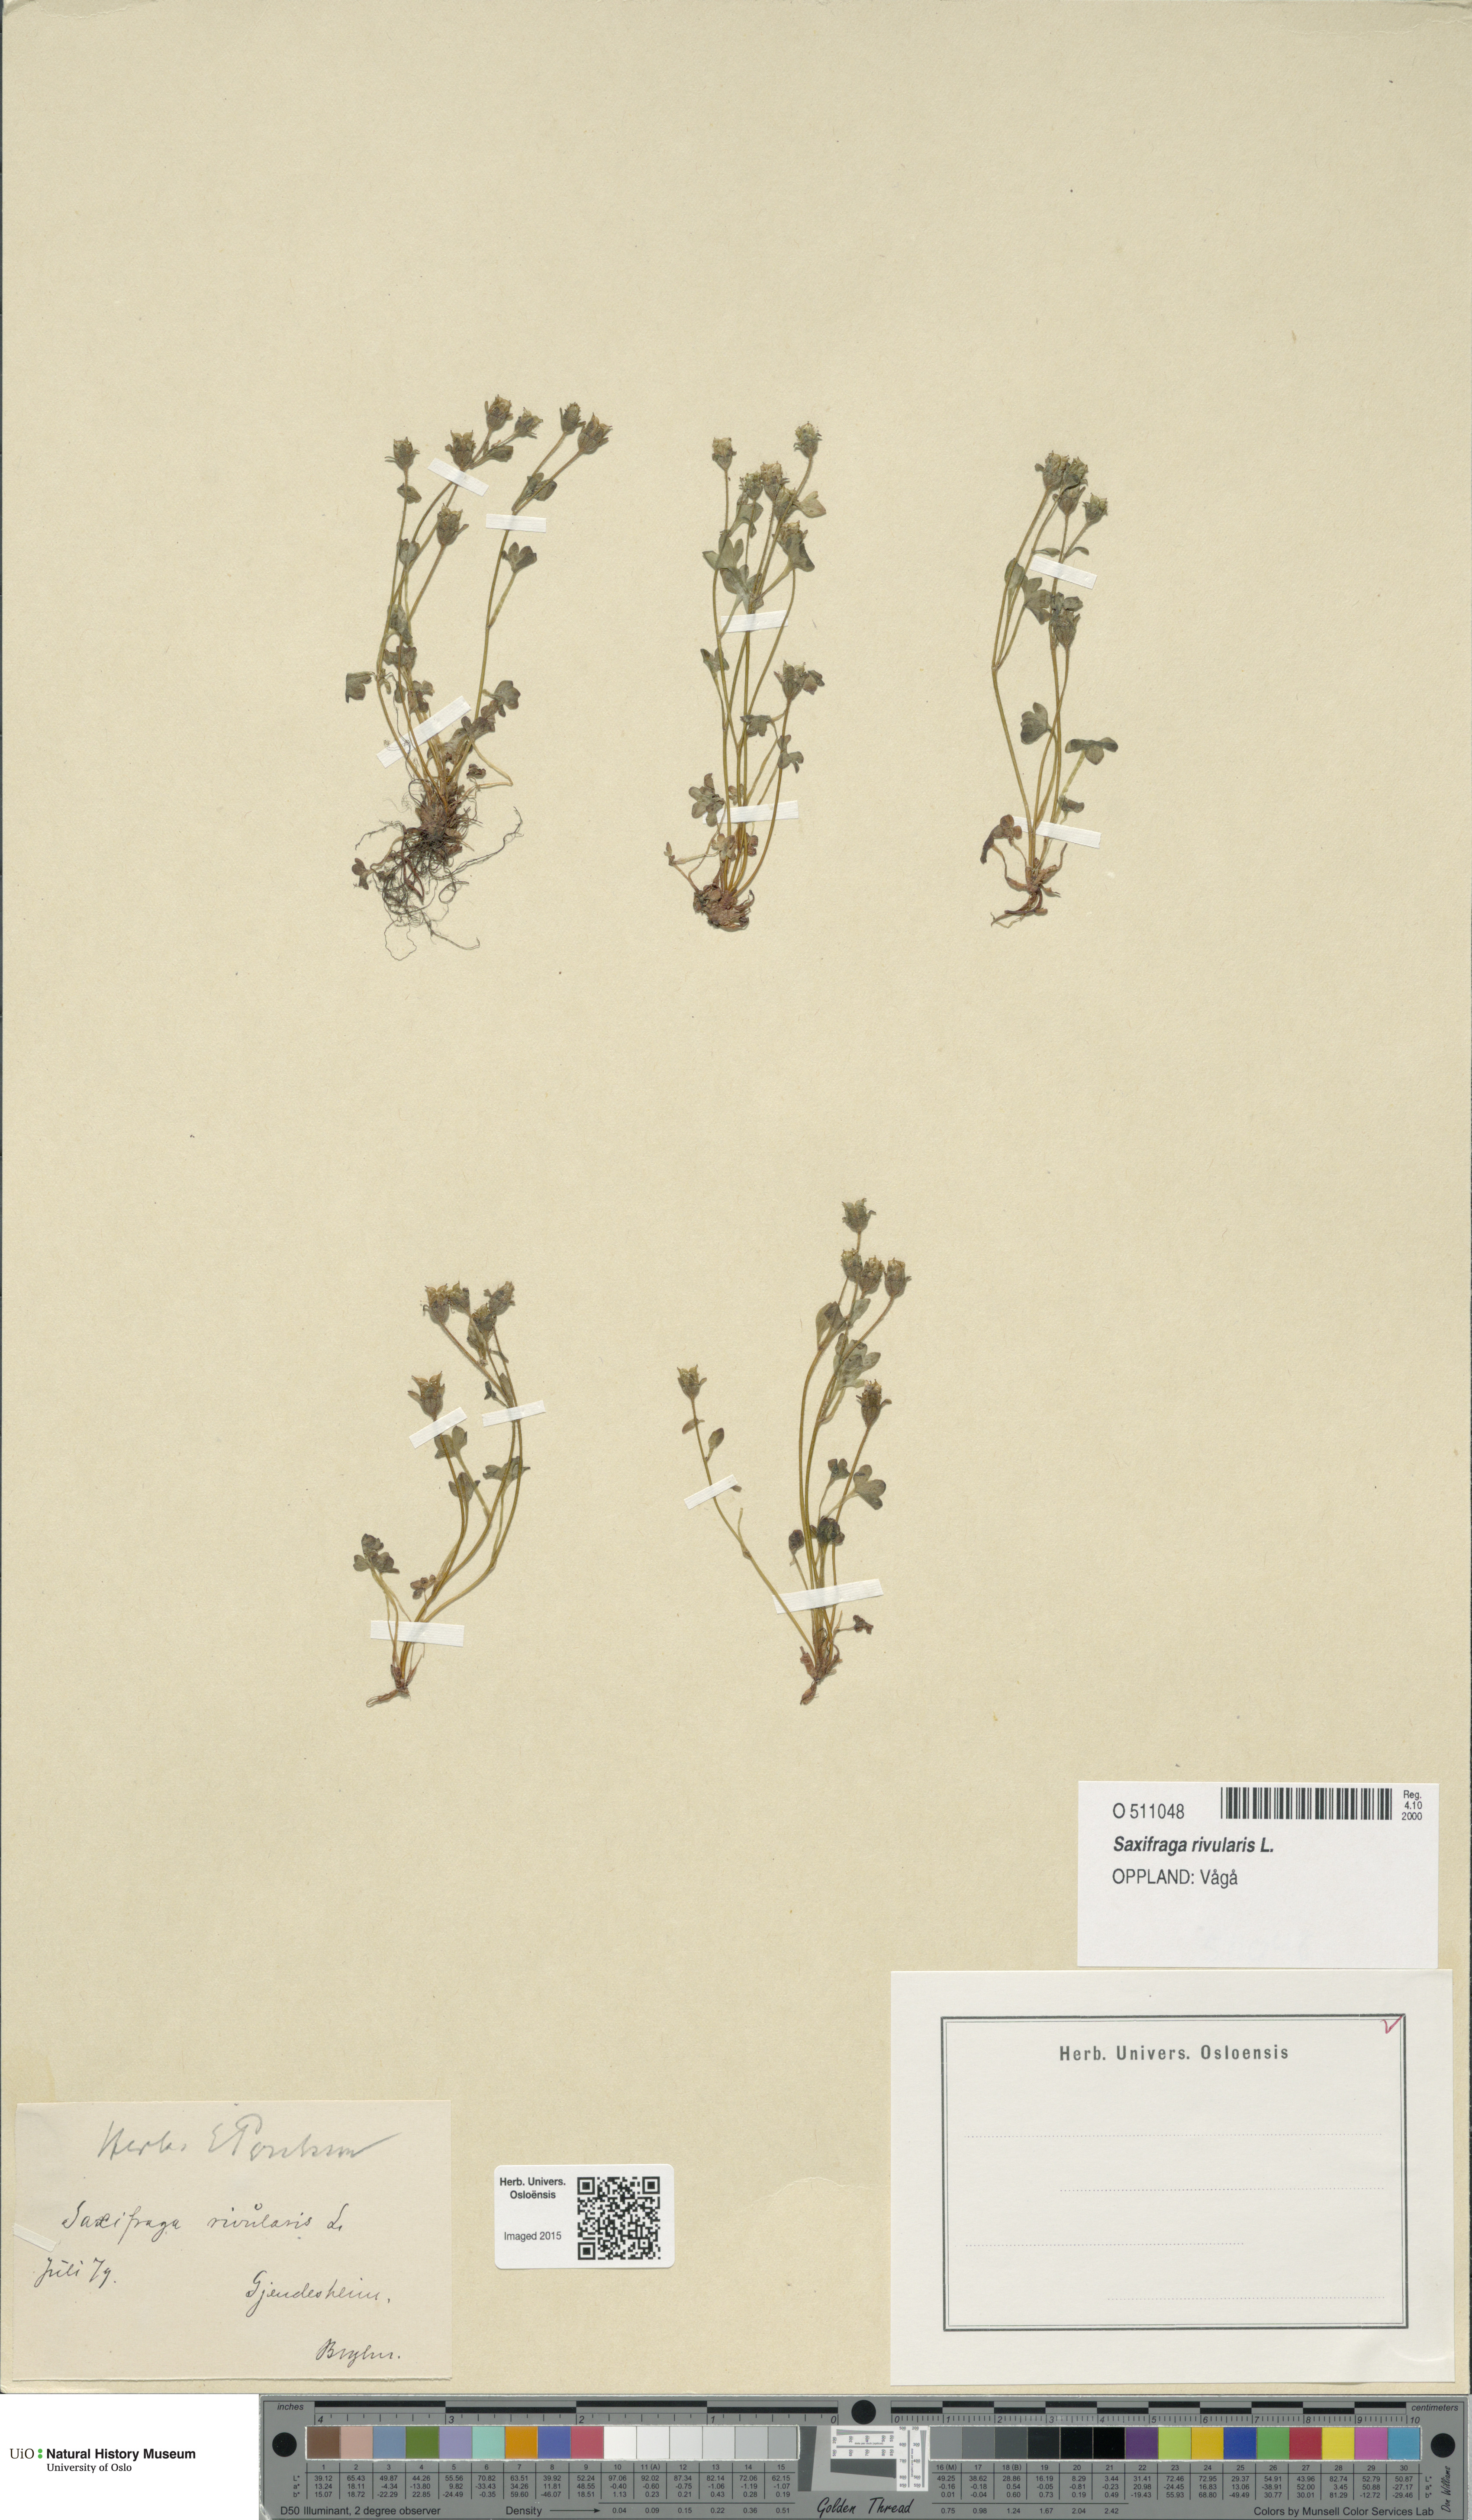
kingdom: Plantae
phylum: Tracheophyta
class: Magnoliopsida
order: Saxifragales
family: Saxifragaceae
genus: Saxifraga
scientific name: Saxifraga rivularis
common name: Highland saxifrage
